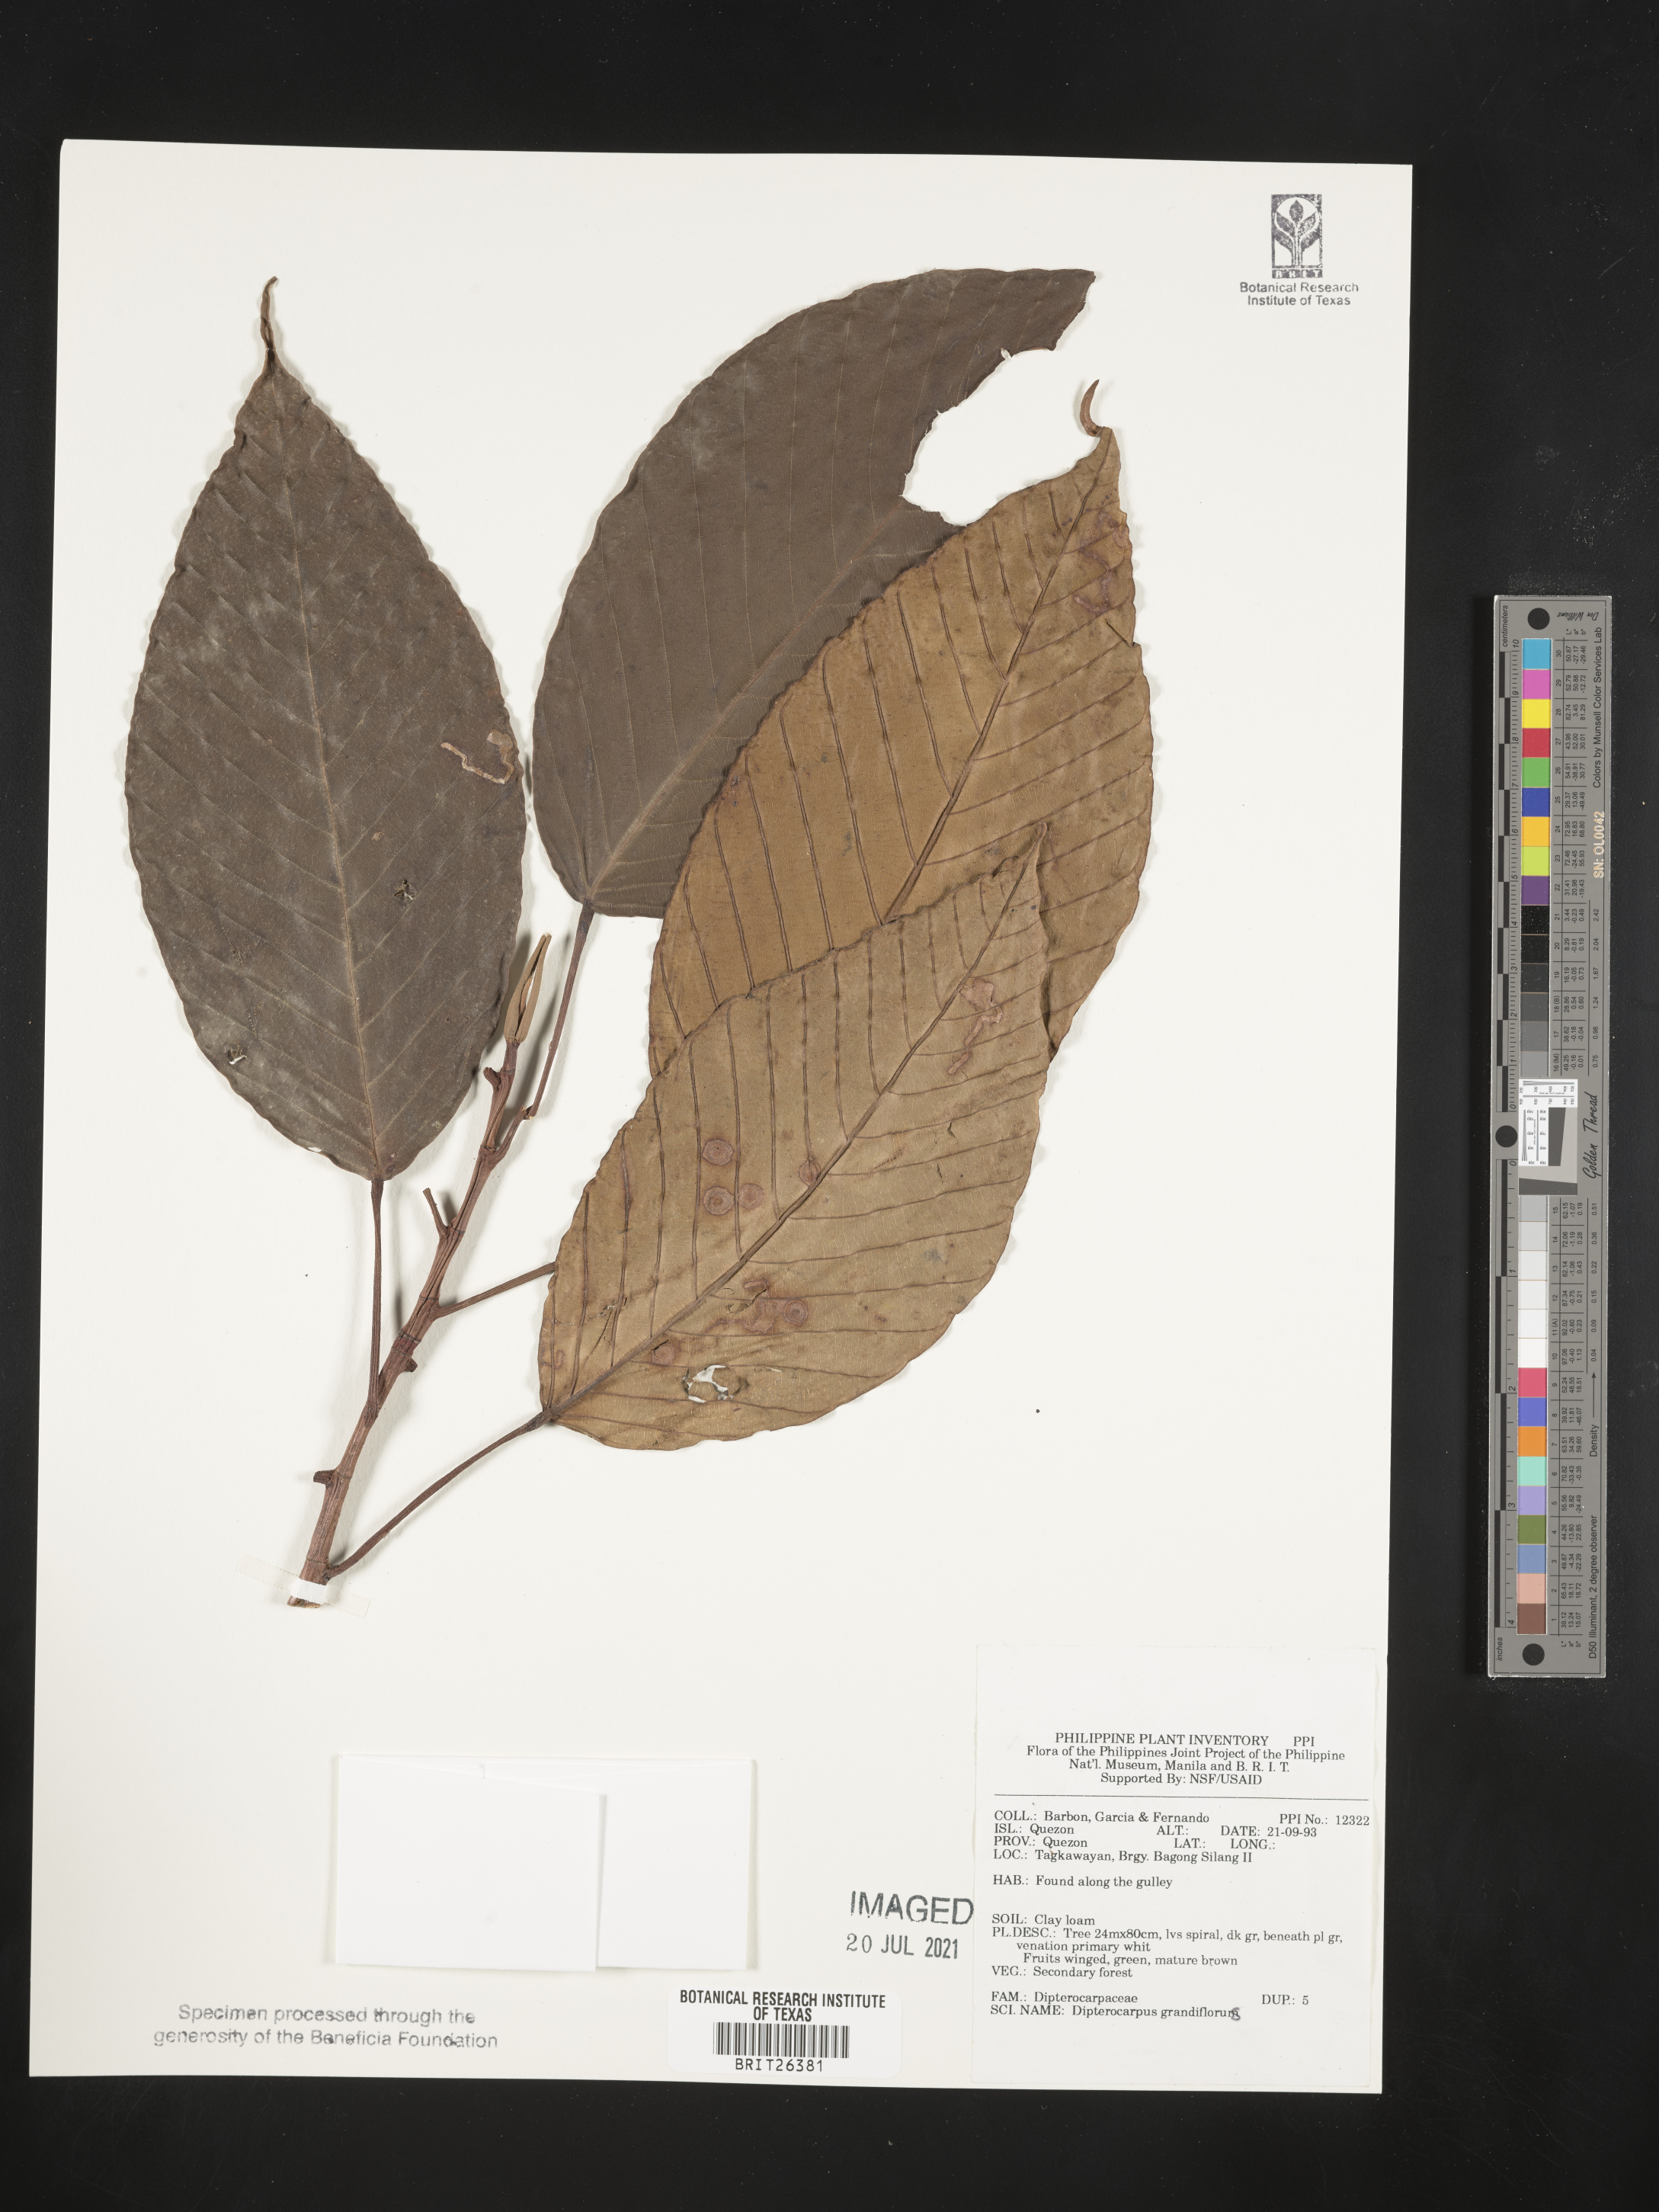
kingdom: Plantae
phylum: Tracheophyta
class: Magnoliopsida
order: Malvales
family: Dipterocarpaceae
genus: Dipterocarpus
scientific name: Dipterocarpus grandiflorus
